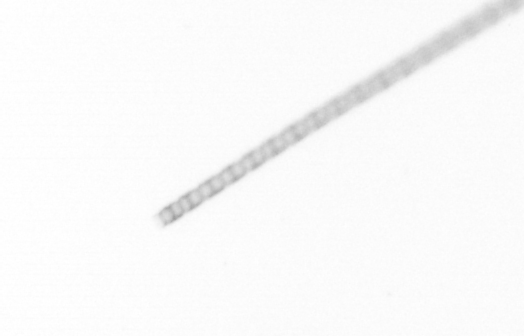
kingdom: Chromista
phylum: Ochrophyta
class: Bacillariophyceae
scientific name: Bacillariophyceae
